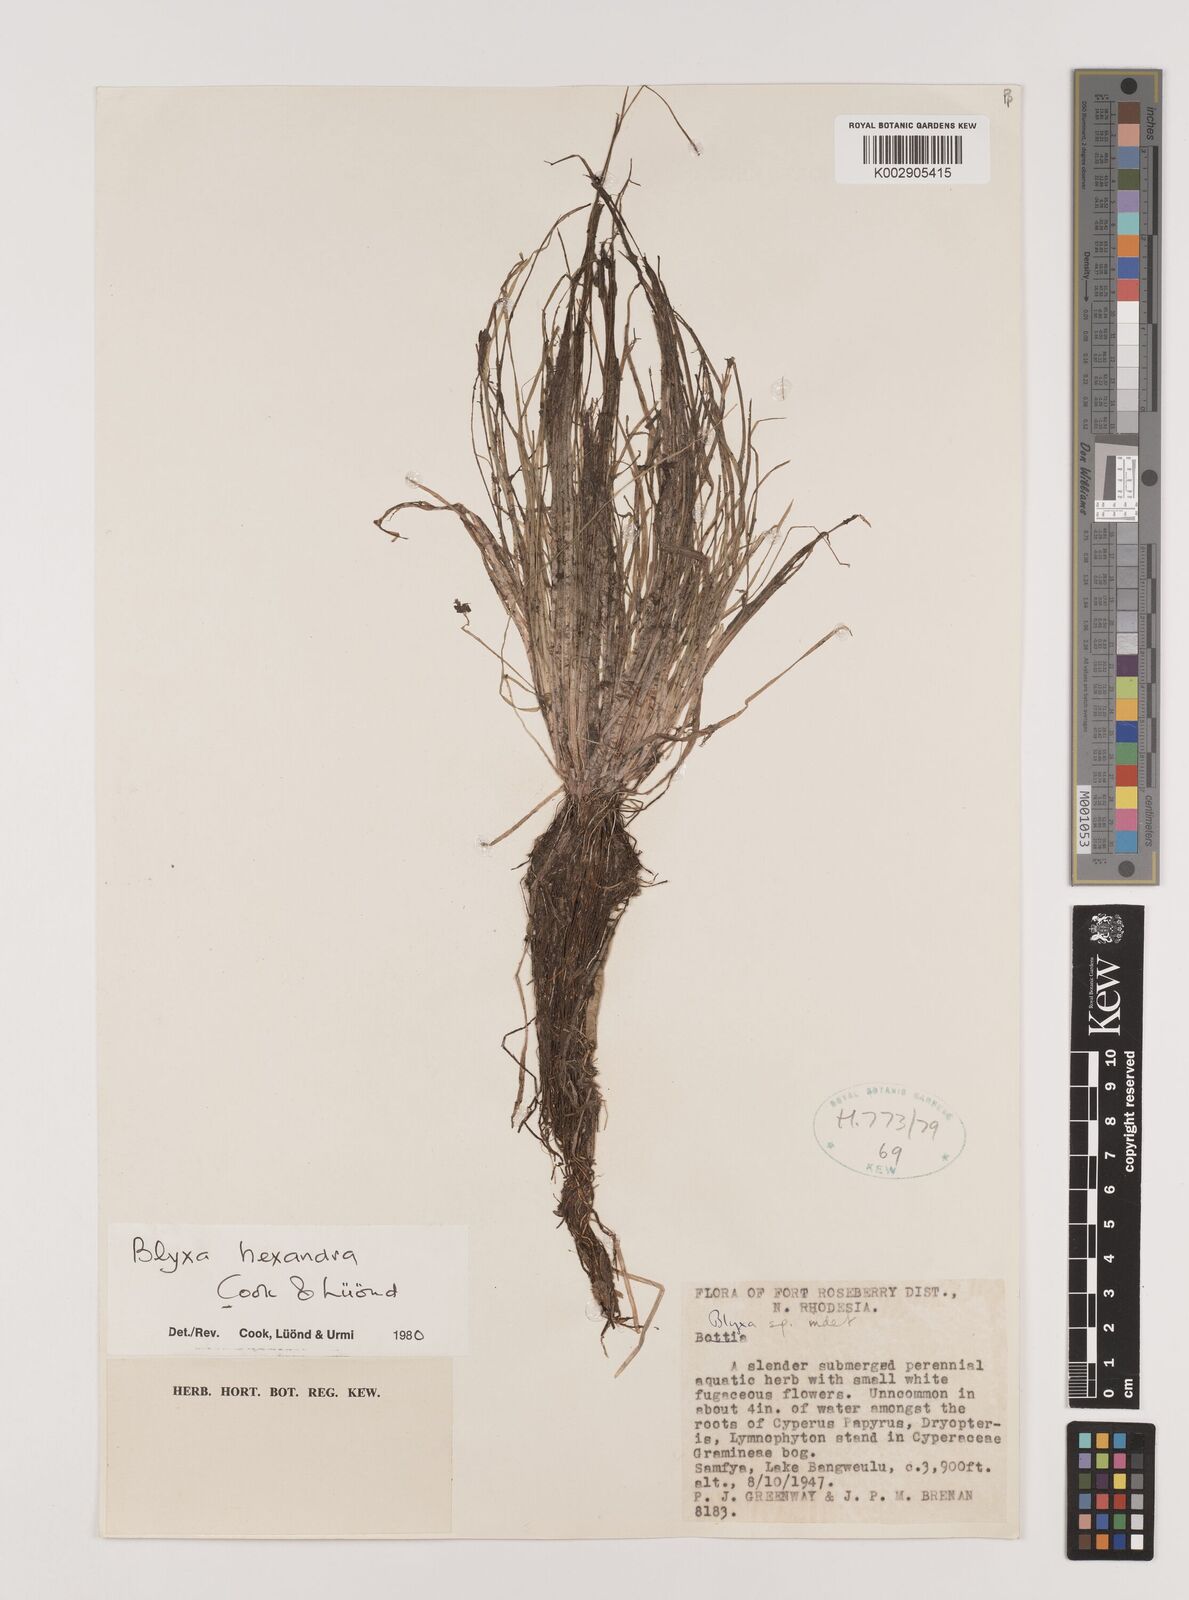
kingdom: Plantae
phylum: Tracheophyta
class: Liliopsida
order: Alismatales
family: Hydrocharitaceae
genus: Blyxa
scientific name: Blyxa hexandra
